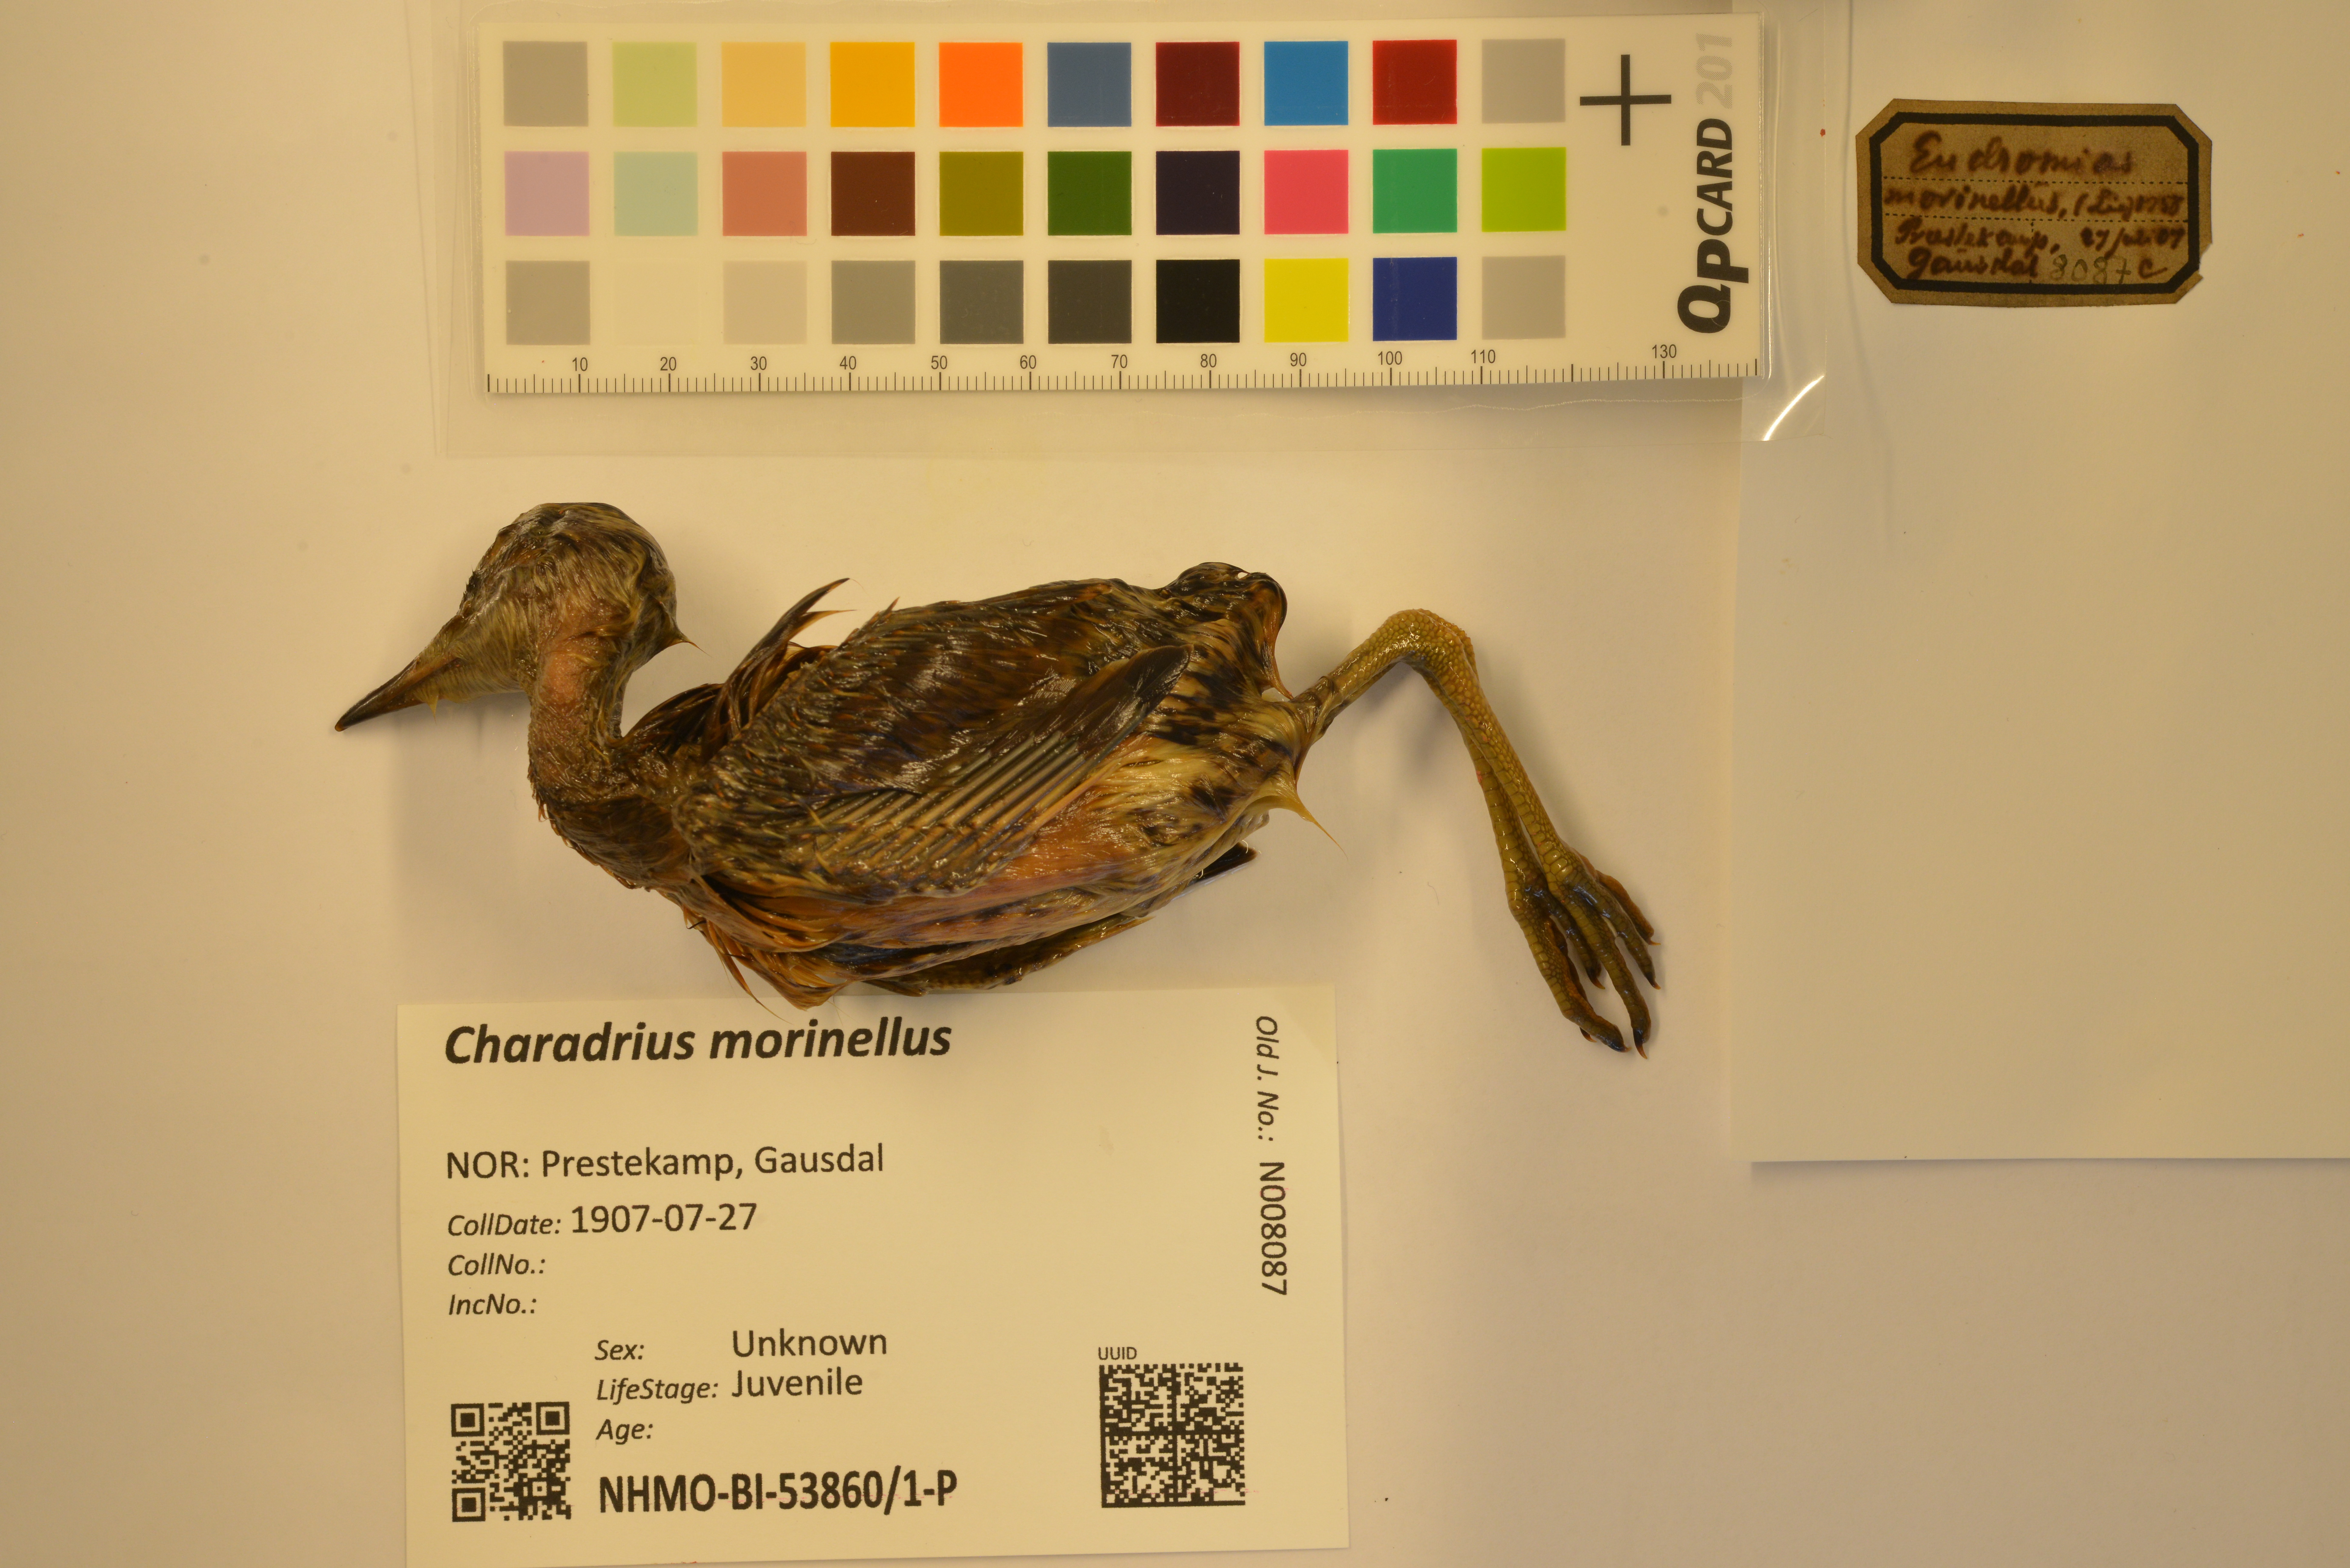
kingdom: Animalia
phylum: Chordata
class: Aves
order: Charadriiformes
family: Charadriidae
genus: Charadrius
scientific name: Charadrius morinellus
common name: Eurasian dotterel
